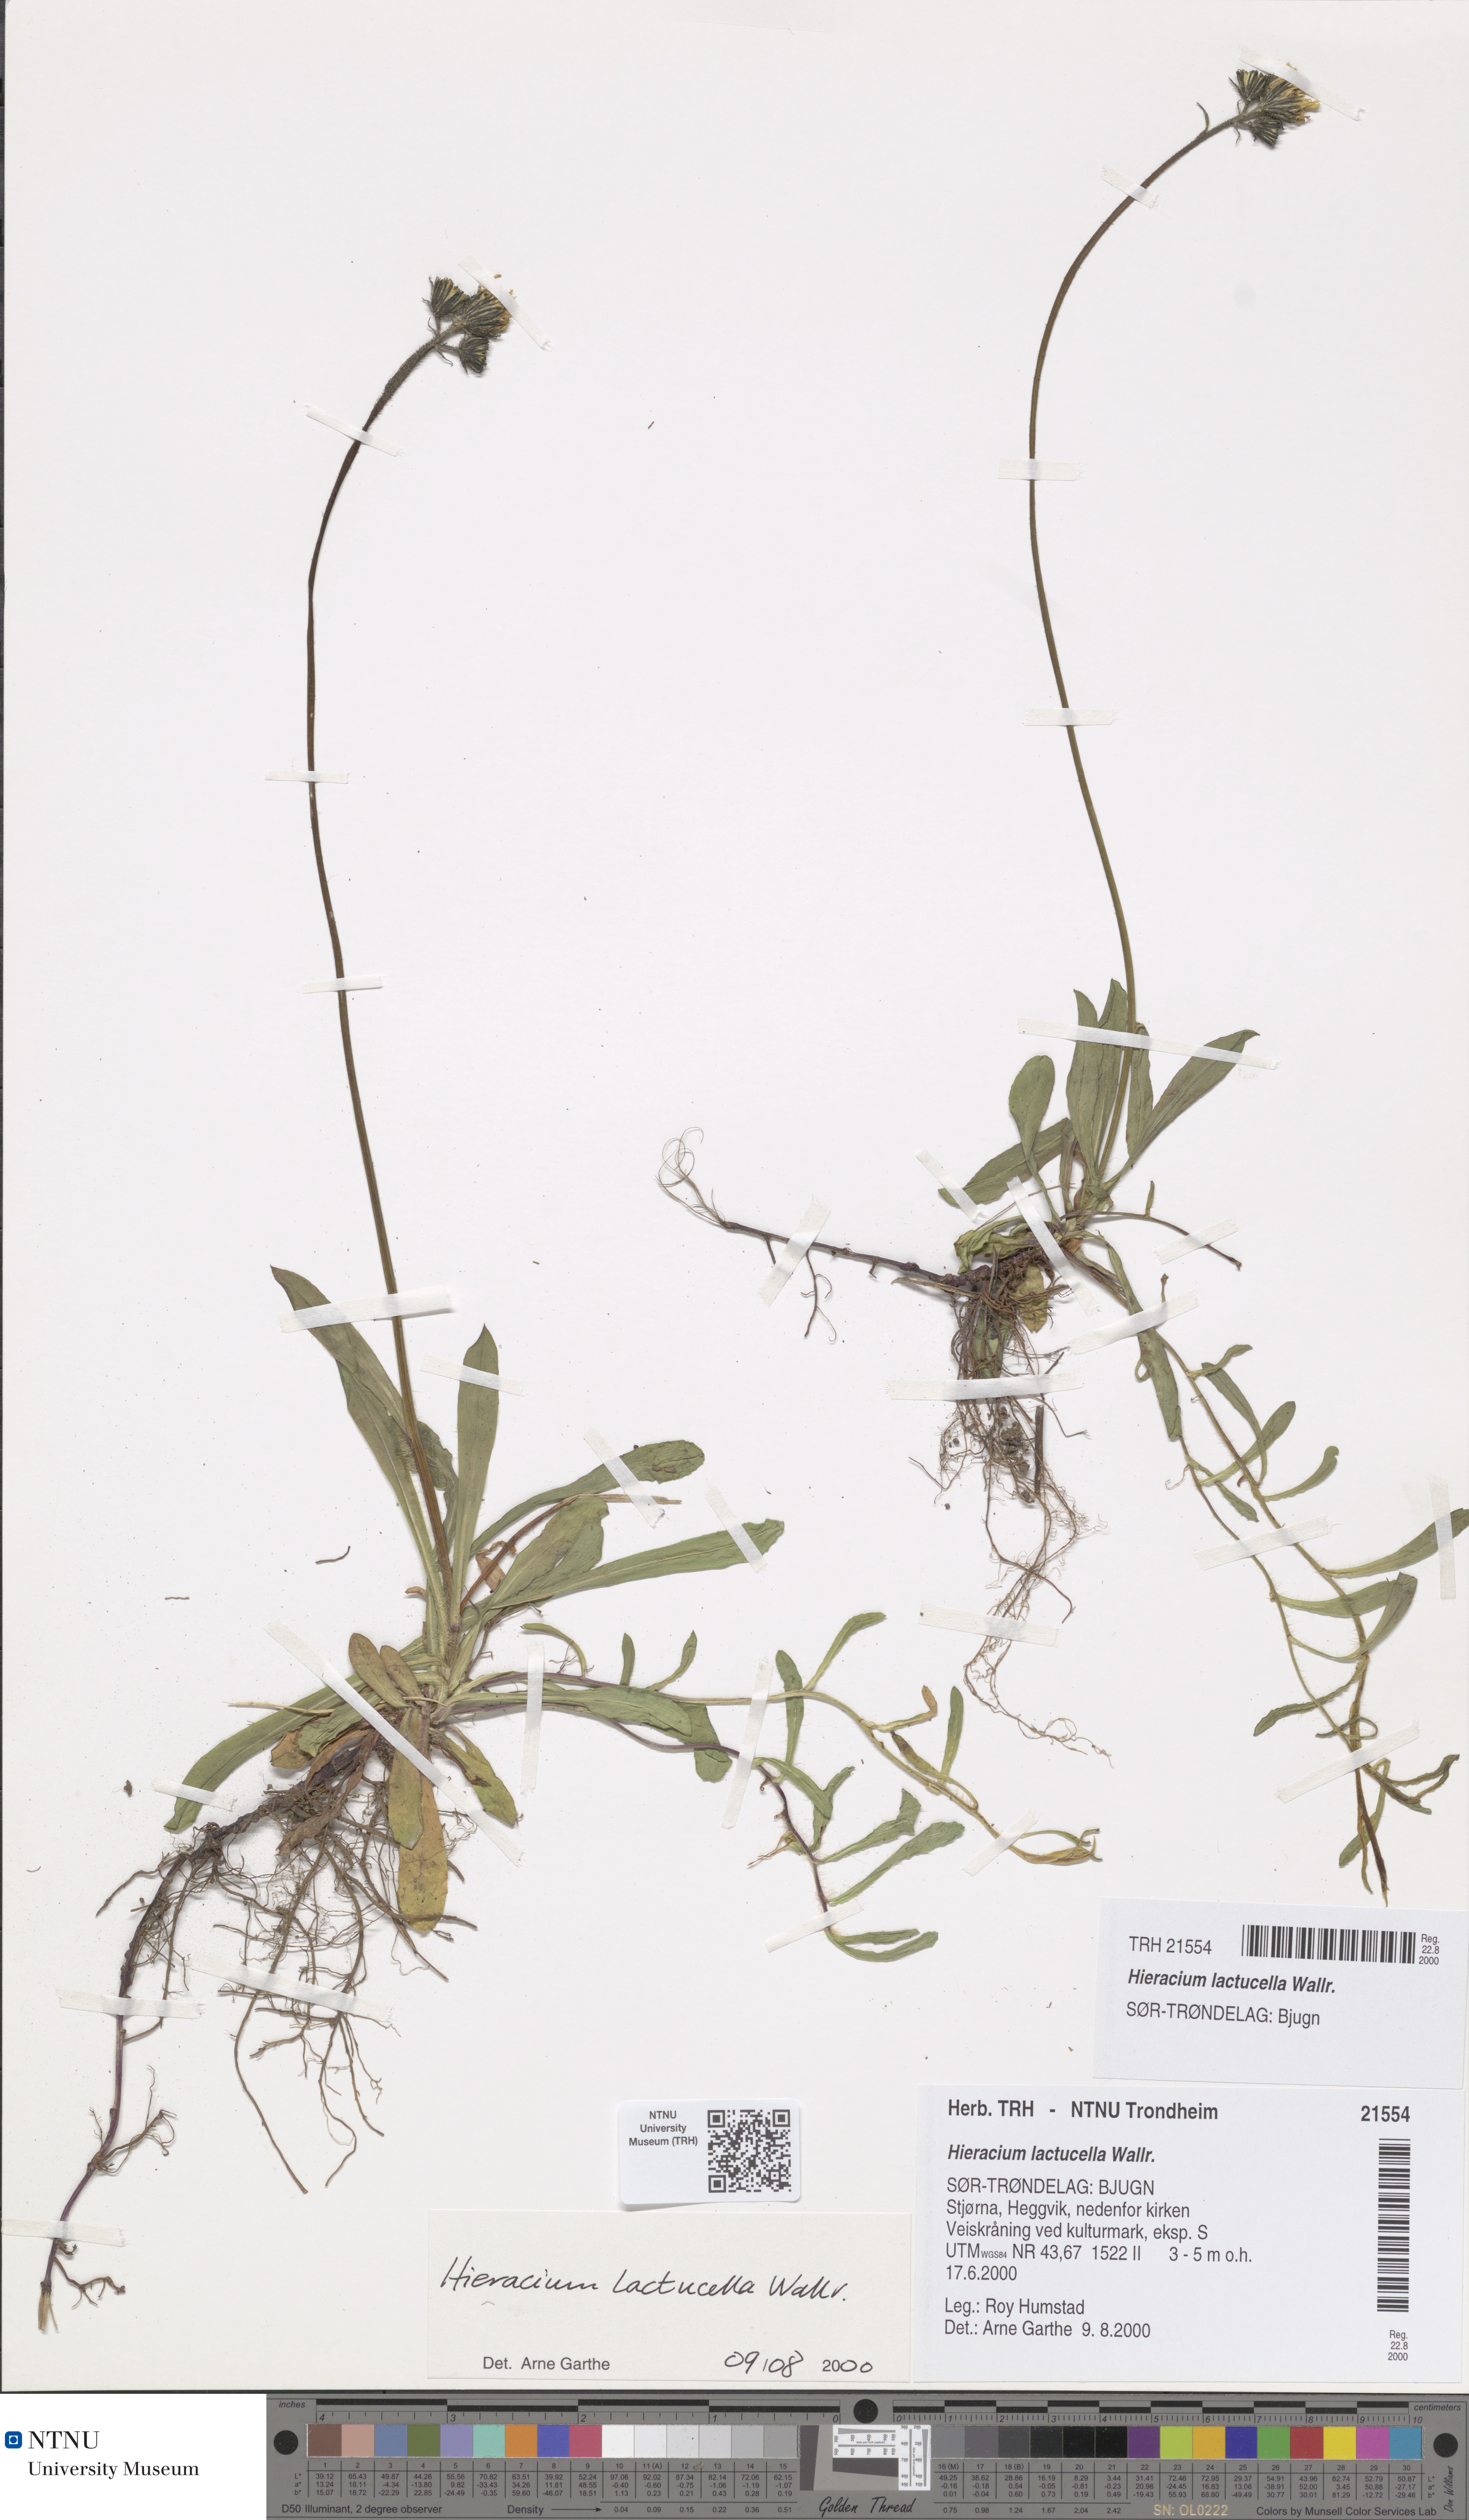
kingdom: Plantae
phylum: Tracheophyta
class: Magnoliopsida
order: Asterales
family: Asteraceae
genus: Pilosella
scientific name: Pilosella lactucella
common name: Glaucous fox-and-cubs
